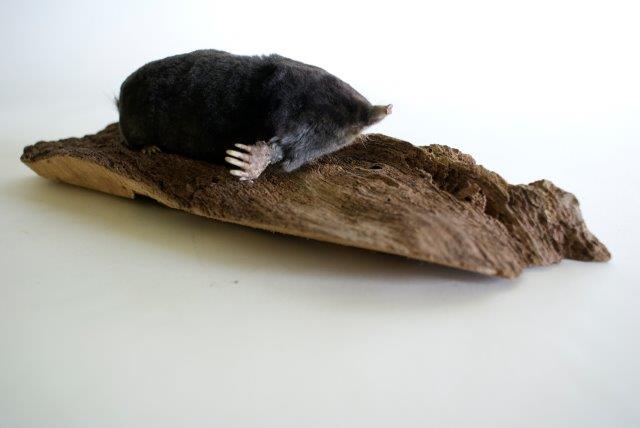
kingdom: Animalia
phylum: Chordata
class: Mammalia
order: Soricomorpha
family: Talpidae
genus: Talpa
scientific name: Talpa europaea
